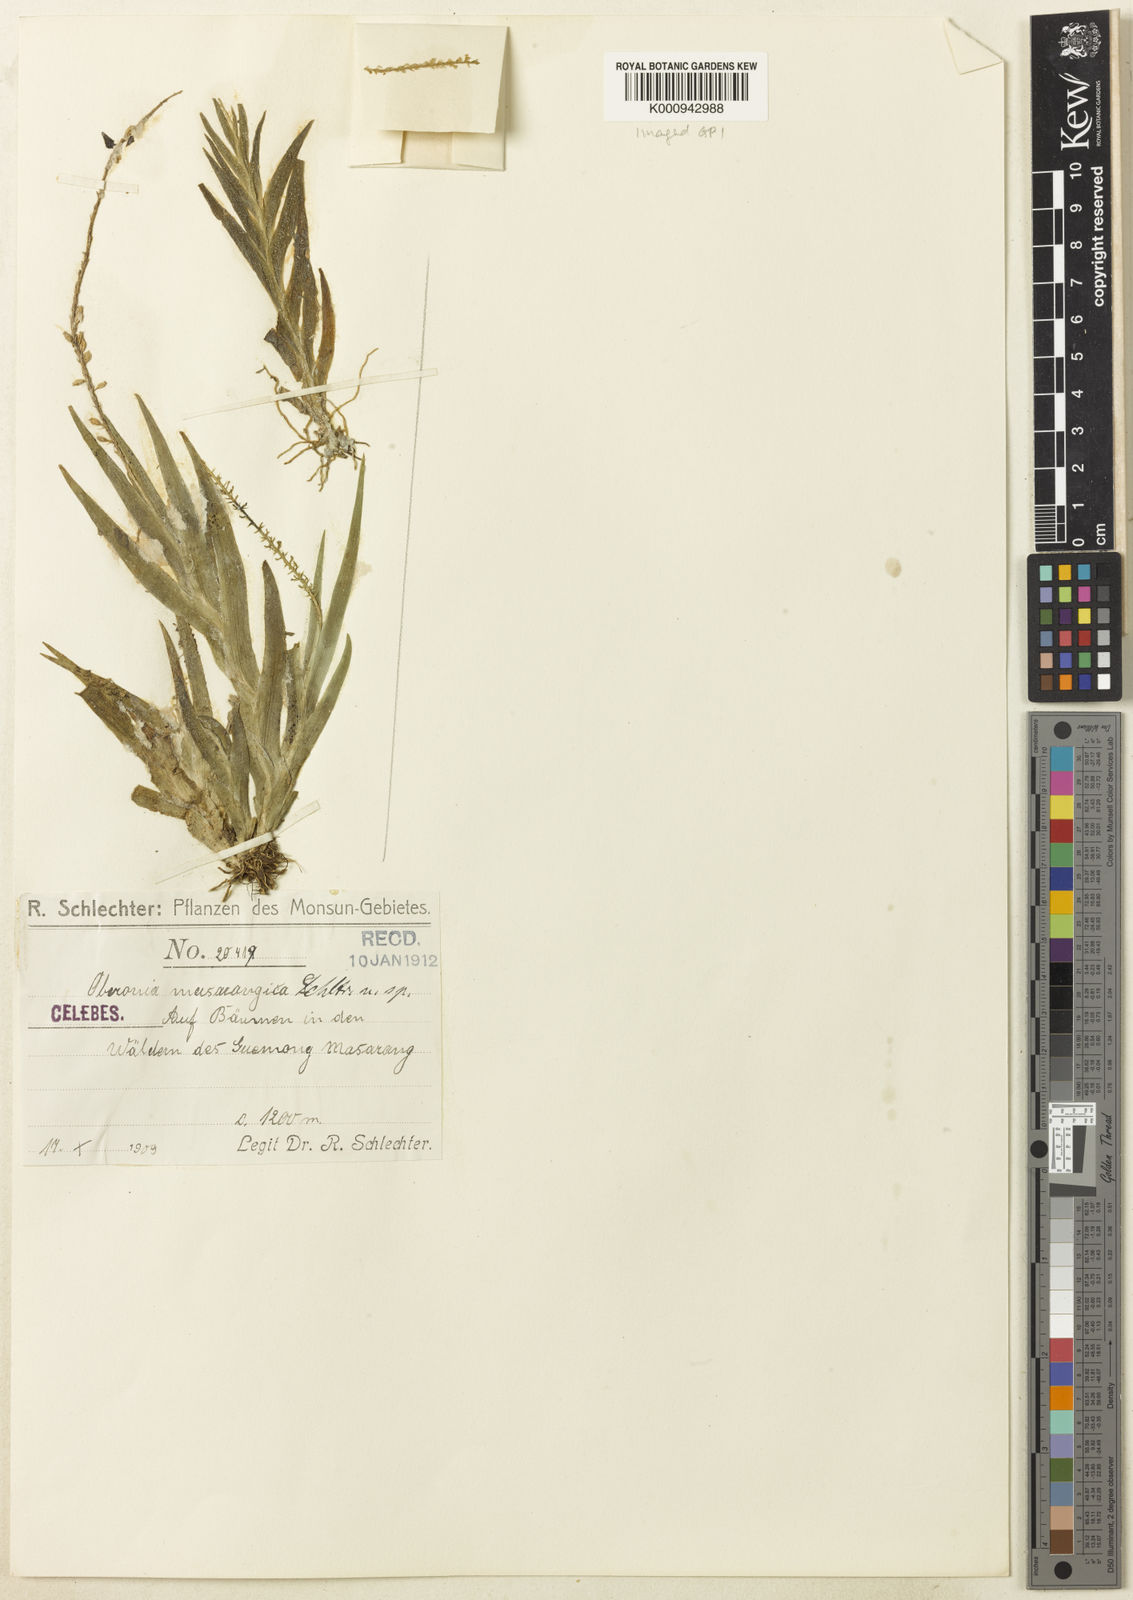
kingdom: Plantae
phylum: Tracheophyta
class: Liliopsida
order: Asparagales
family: Orchidaceae
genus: Oberonia
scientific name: Oberonia masarangica
